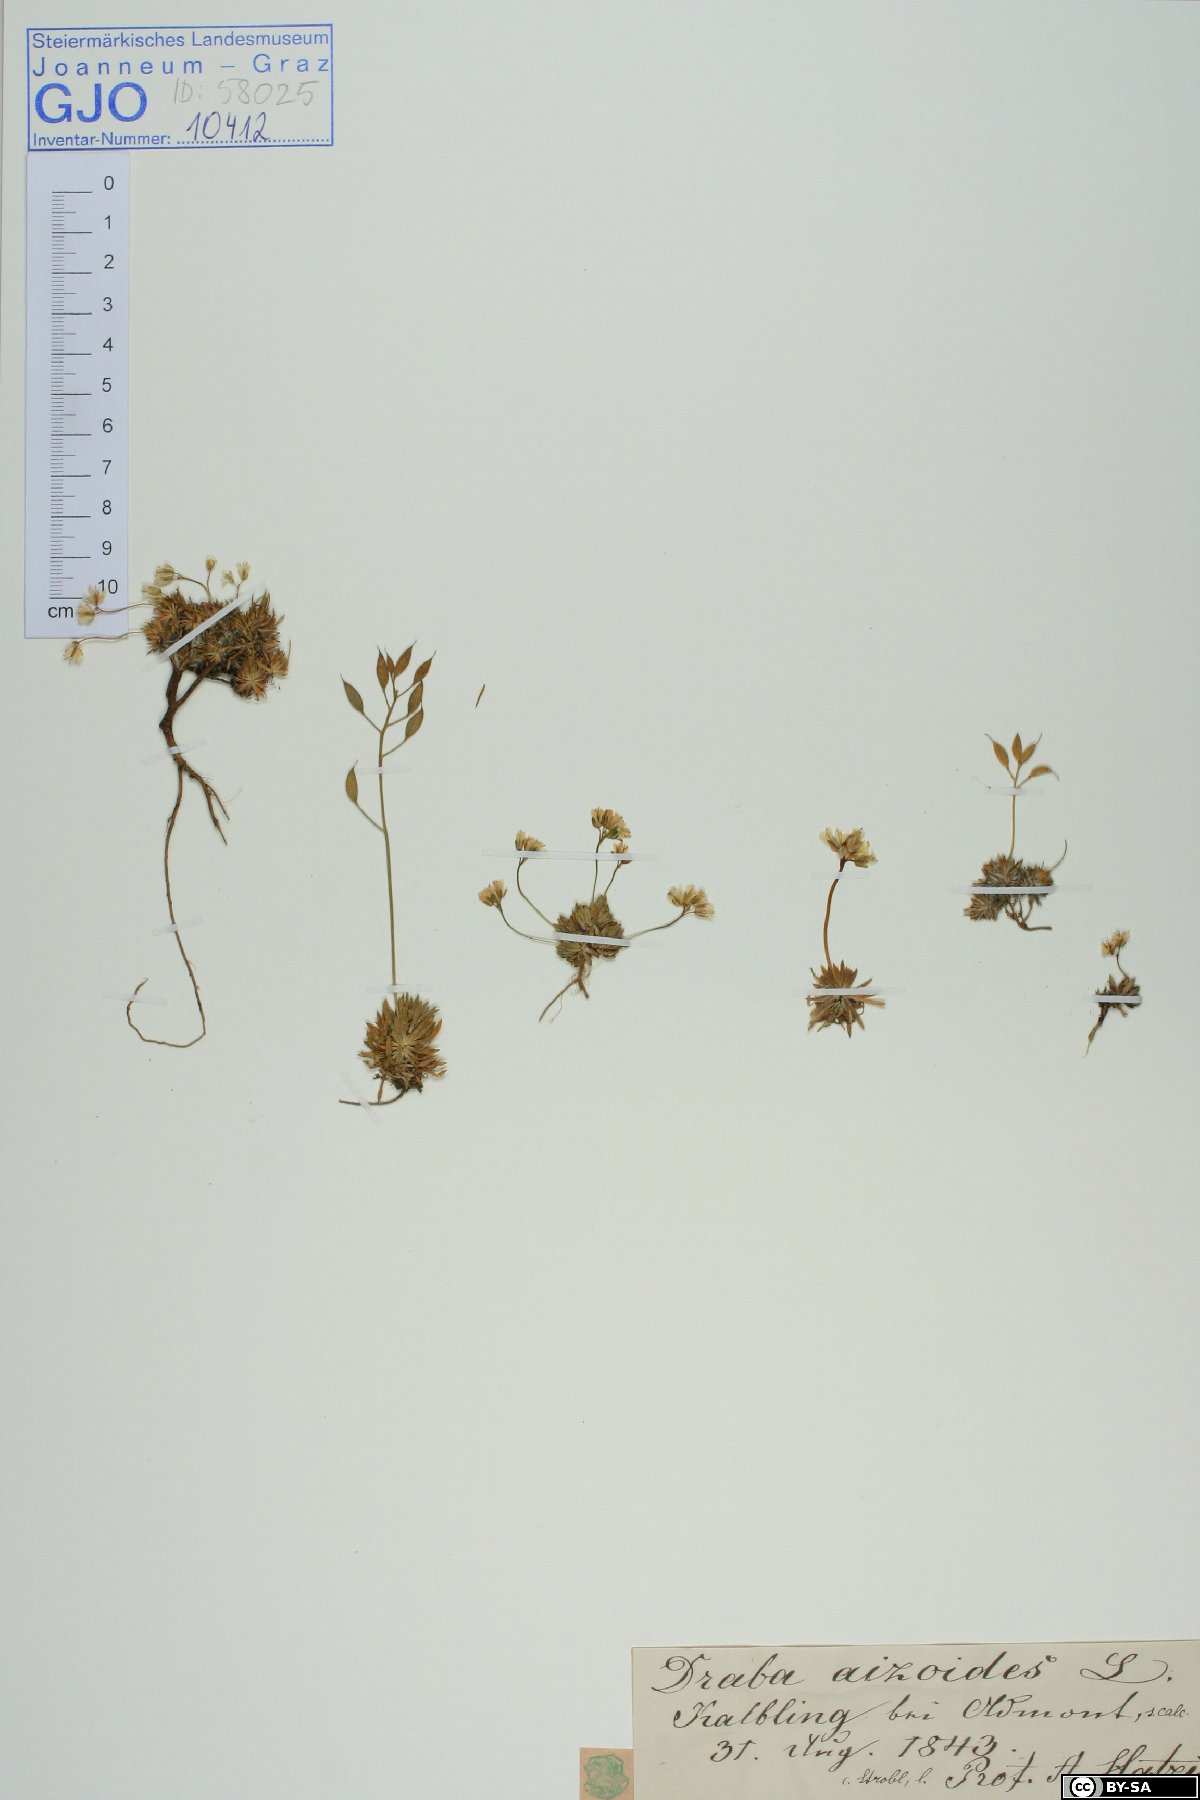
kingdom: Plantae
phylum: Tracheophyta
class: Magnoliopsida
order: Brassicales
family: Brassicaceae
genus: Draba
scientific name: Draba aizoides
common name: Yellow whitlowgrass
